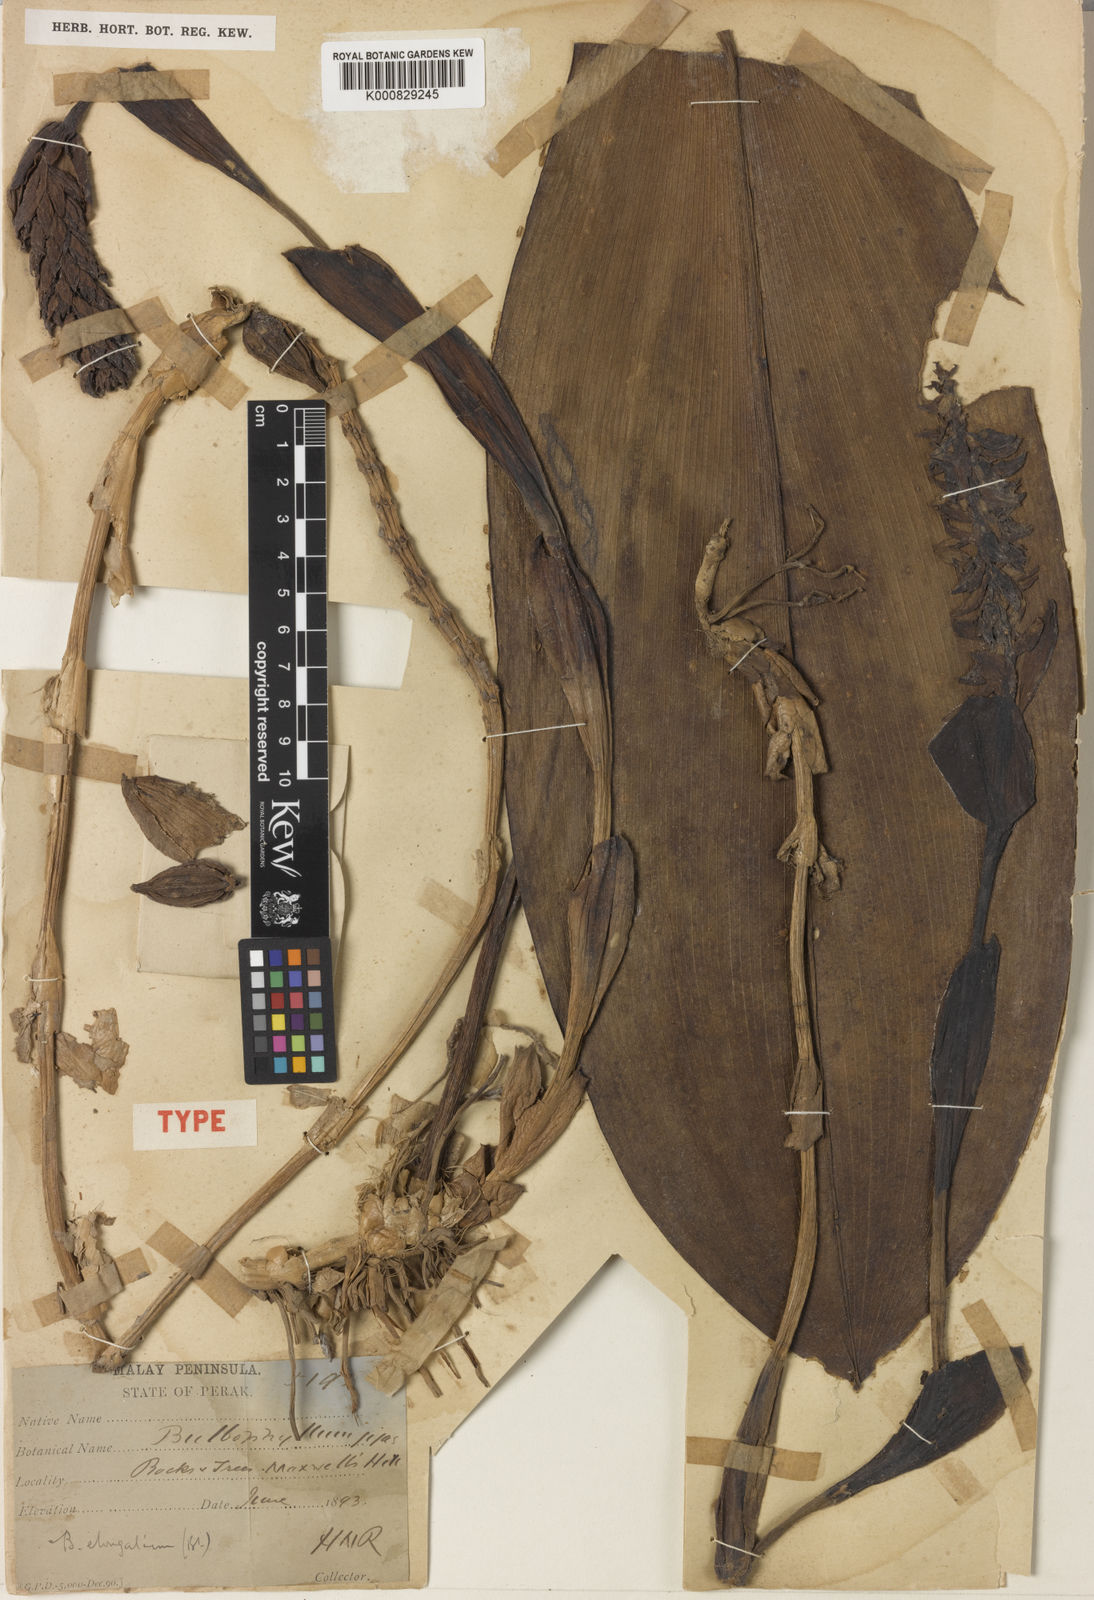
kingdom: Plantae
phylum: Tracheophyta
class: Liliopsida
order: Asparagales
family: Orchidaceae
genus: Bulbophyllum
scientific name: Bulbophyllum elongatum
